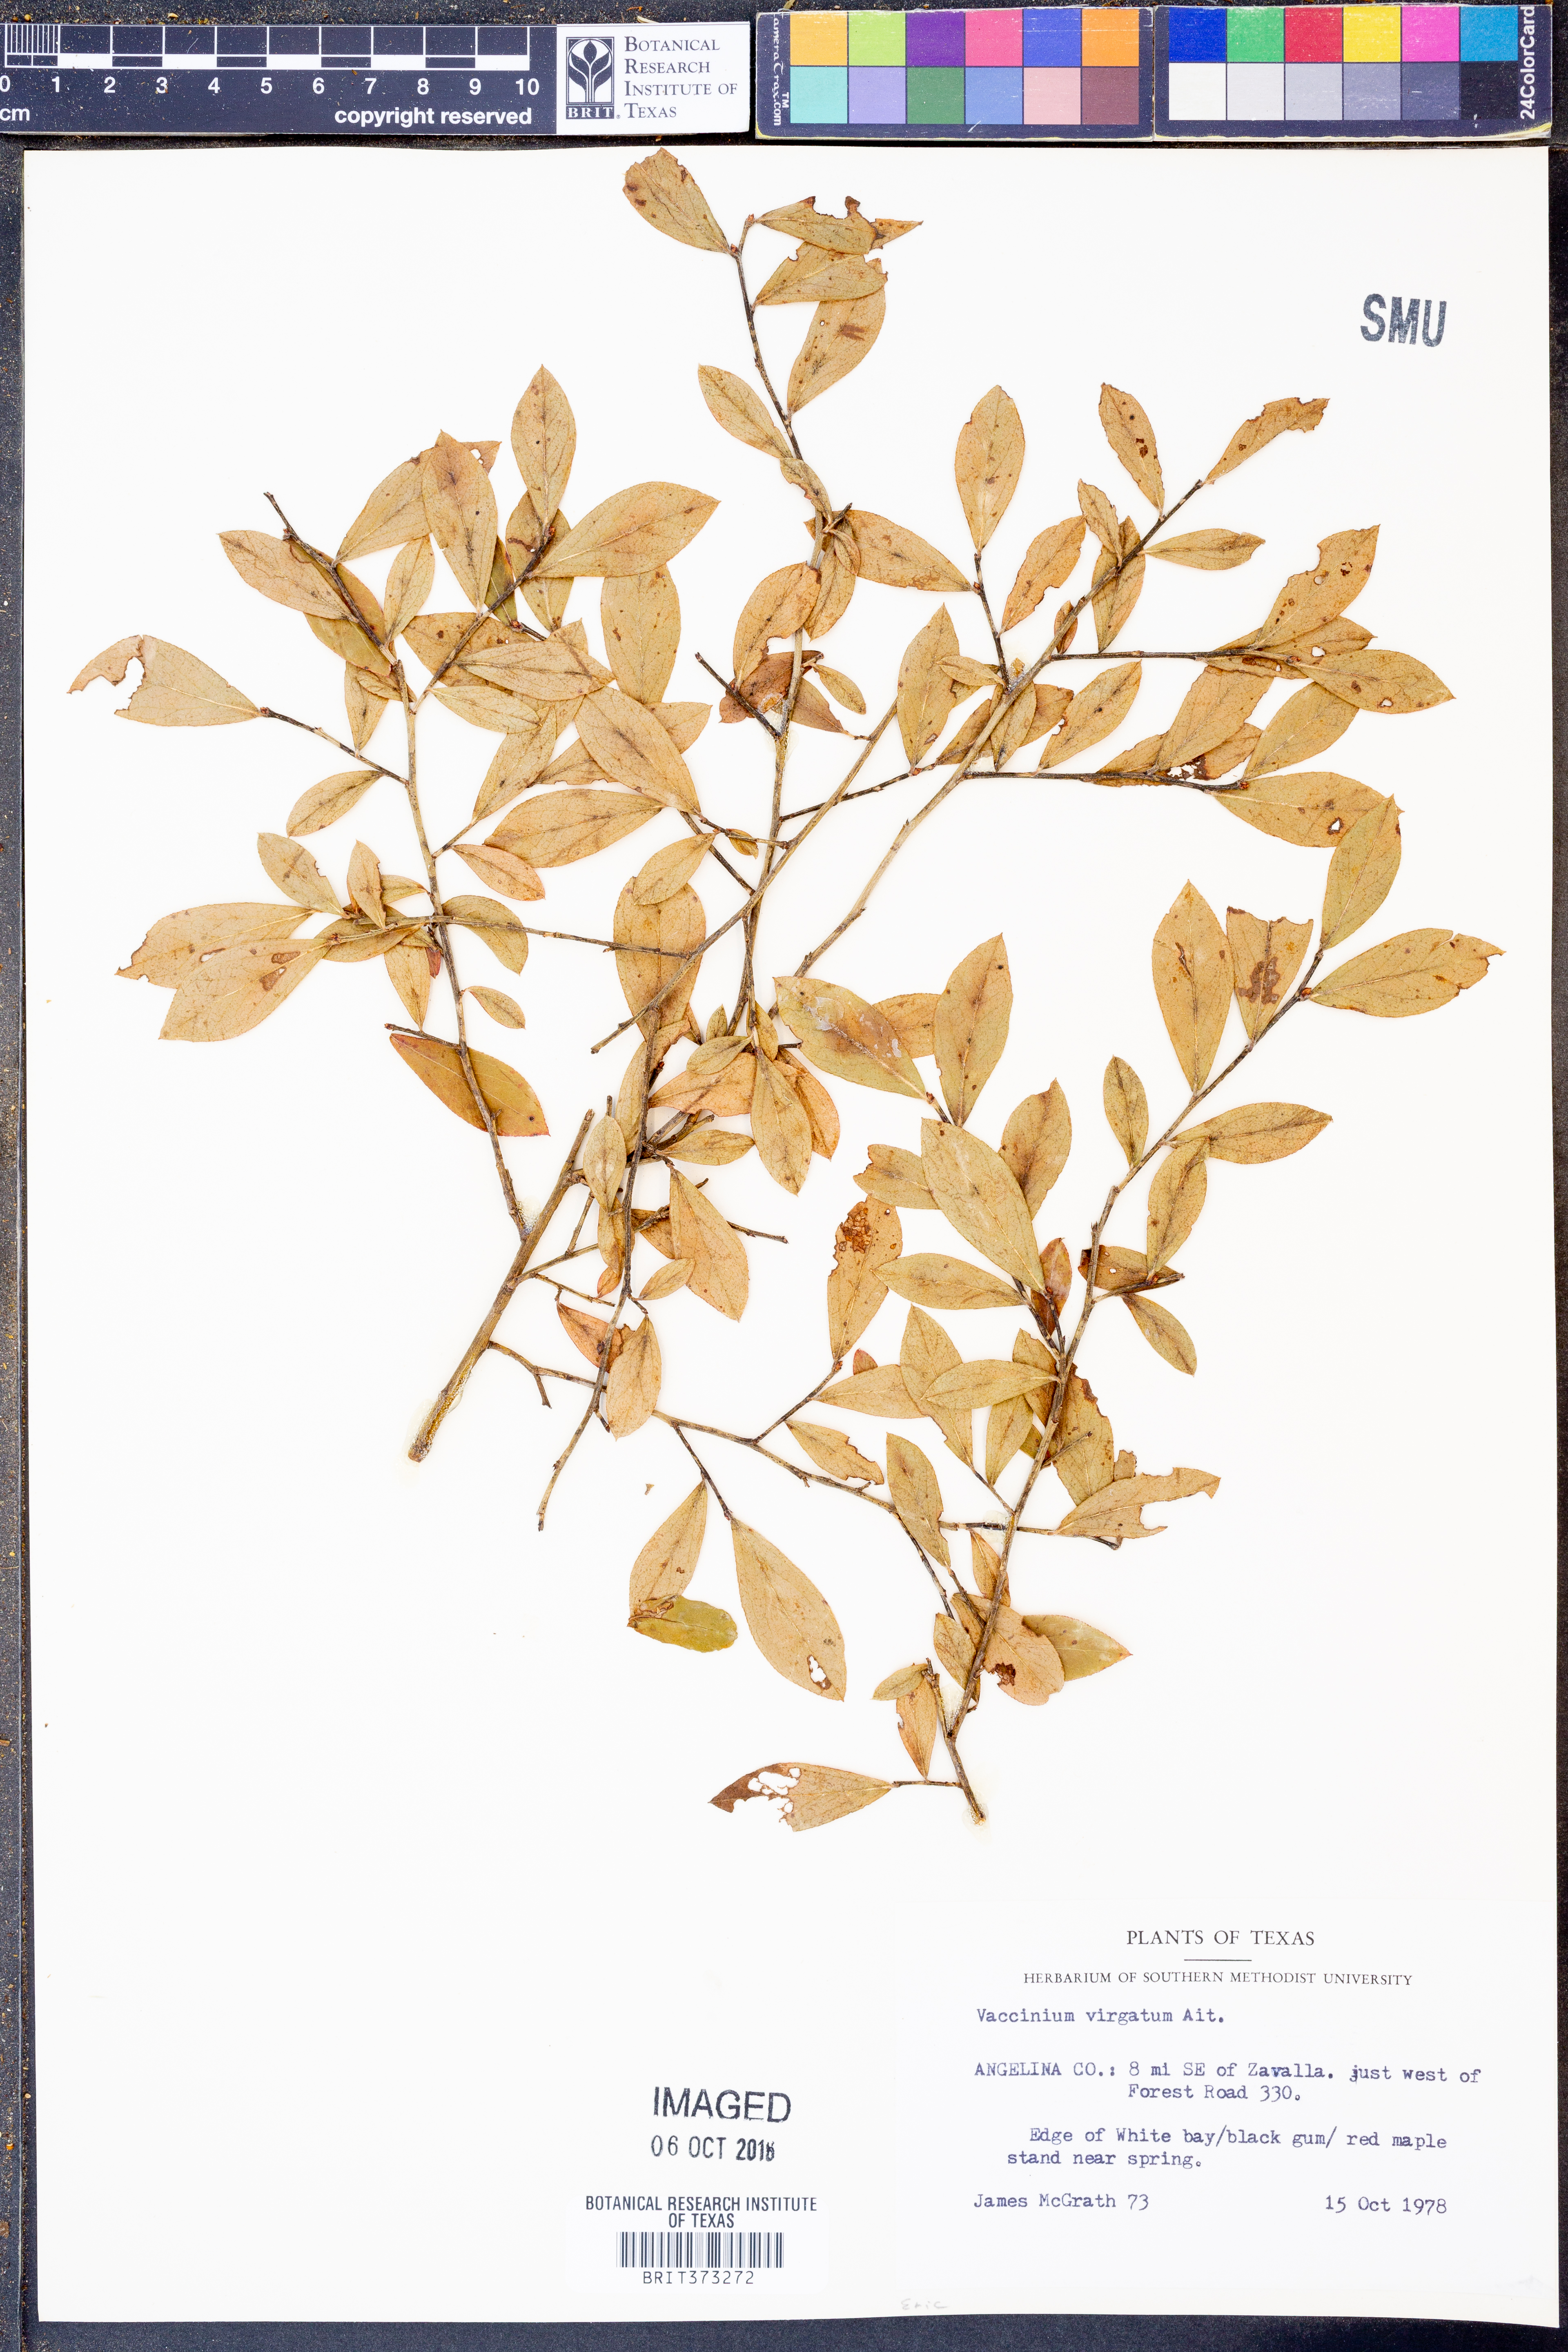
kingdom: Plantae
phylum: Tracheophyta
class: Magnoliopsida
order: Ericales
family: Ericaceae
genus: Vaccinium
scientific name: Vaccinium corymbosum
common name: Blueberry
